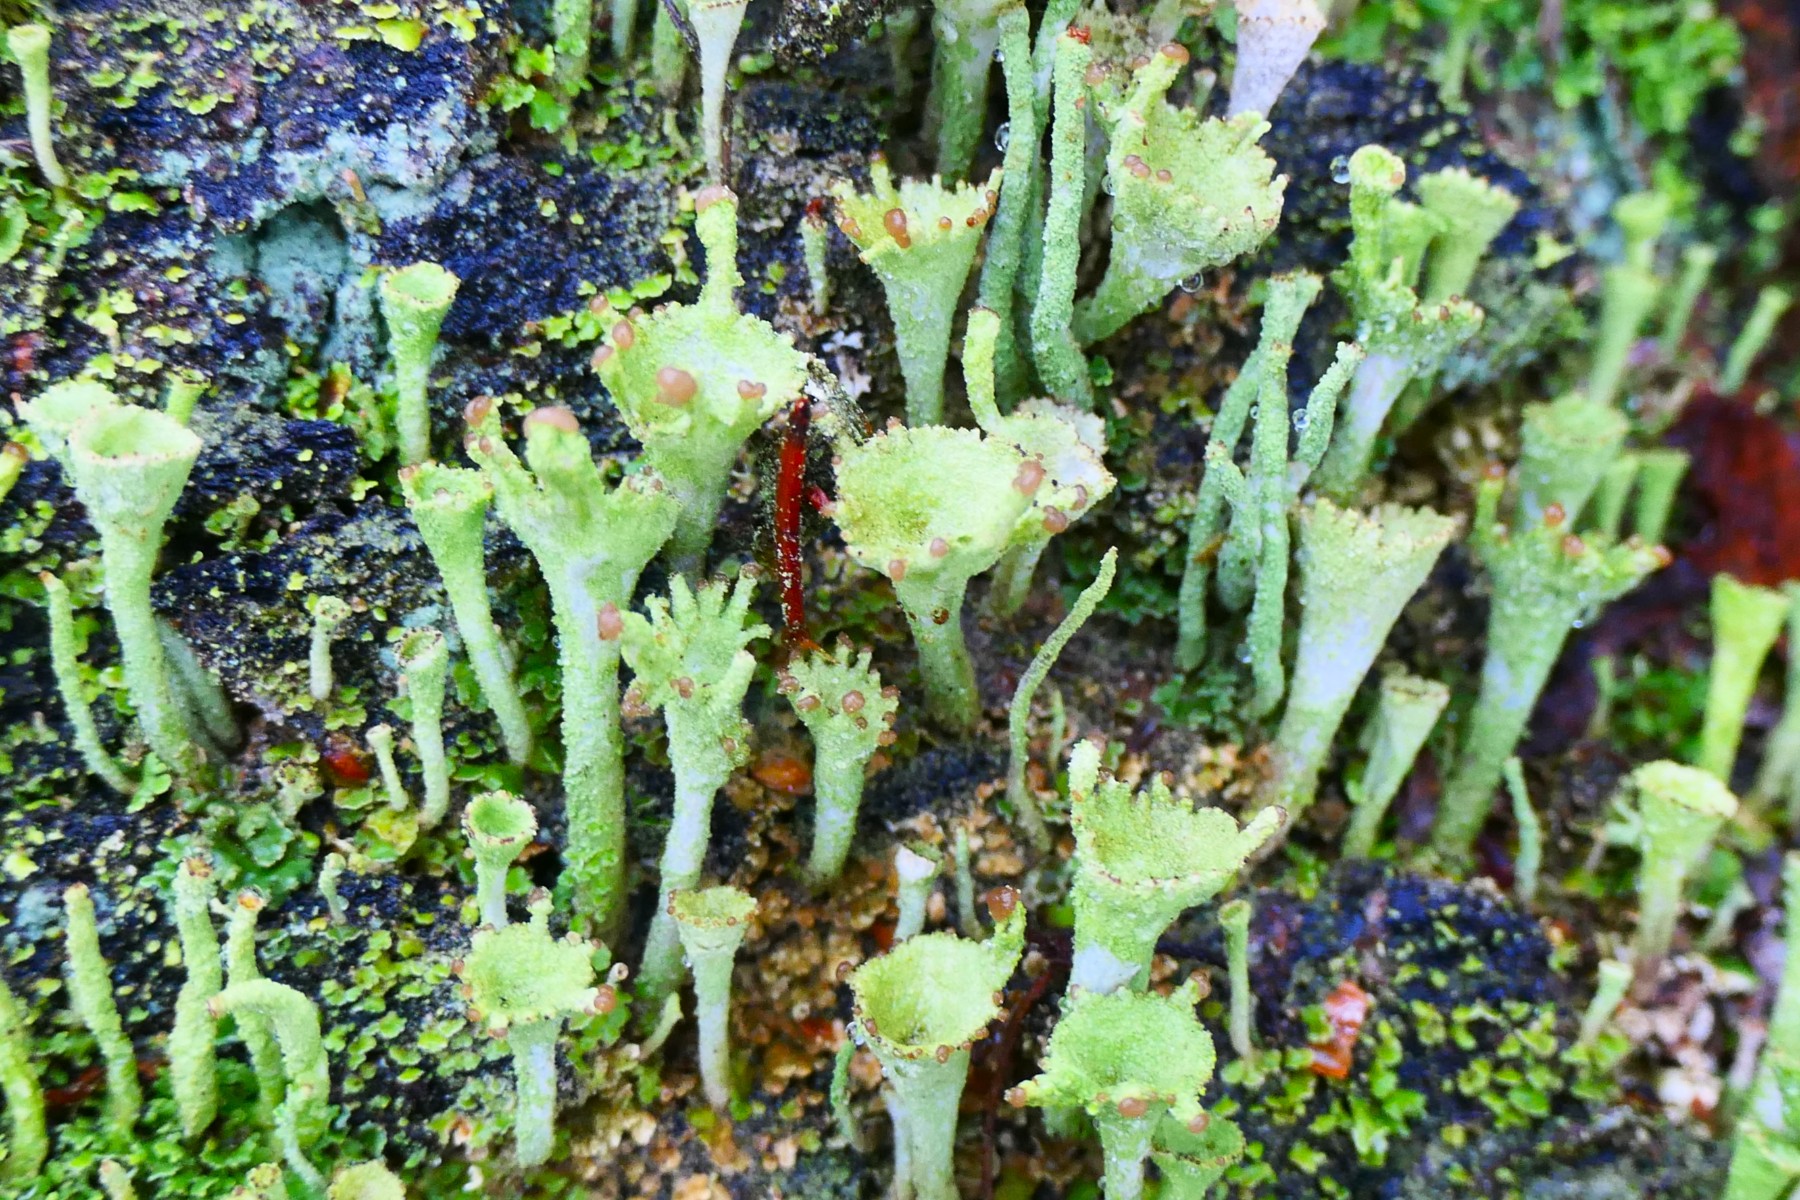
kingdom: Fungi
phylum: Ascomycota
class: Lecanoromycetes
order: Lecanorales
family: Cladoniaceae
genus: Cladonia
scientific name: Cladonia
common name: brungrøn bægerlav
